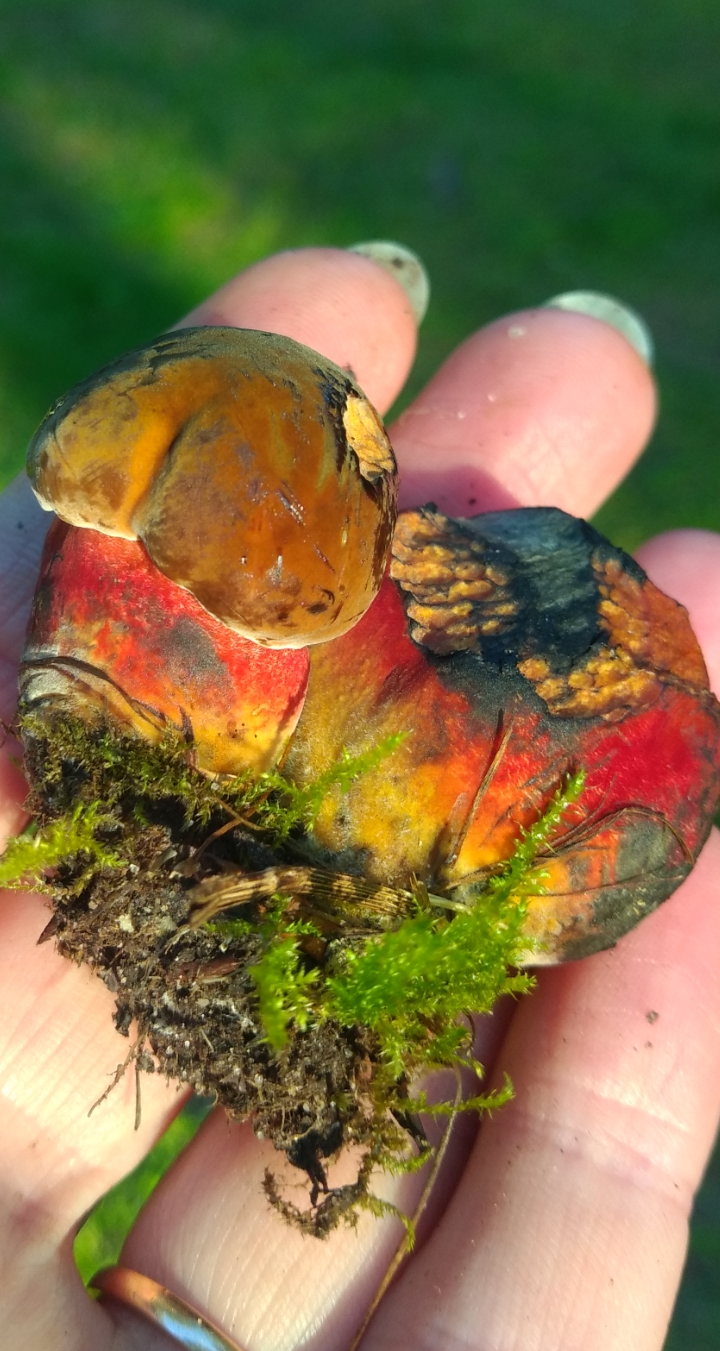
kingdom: Fungi
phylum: Basidiomycota
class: Agaricomycetes
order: Boletales
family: Boletaceae
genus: Neoboletus
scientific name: Neoboletus
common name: indigorørhat
